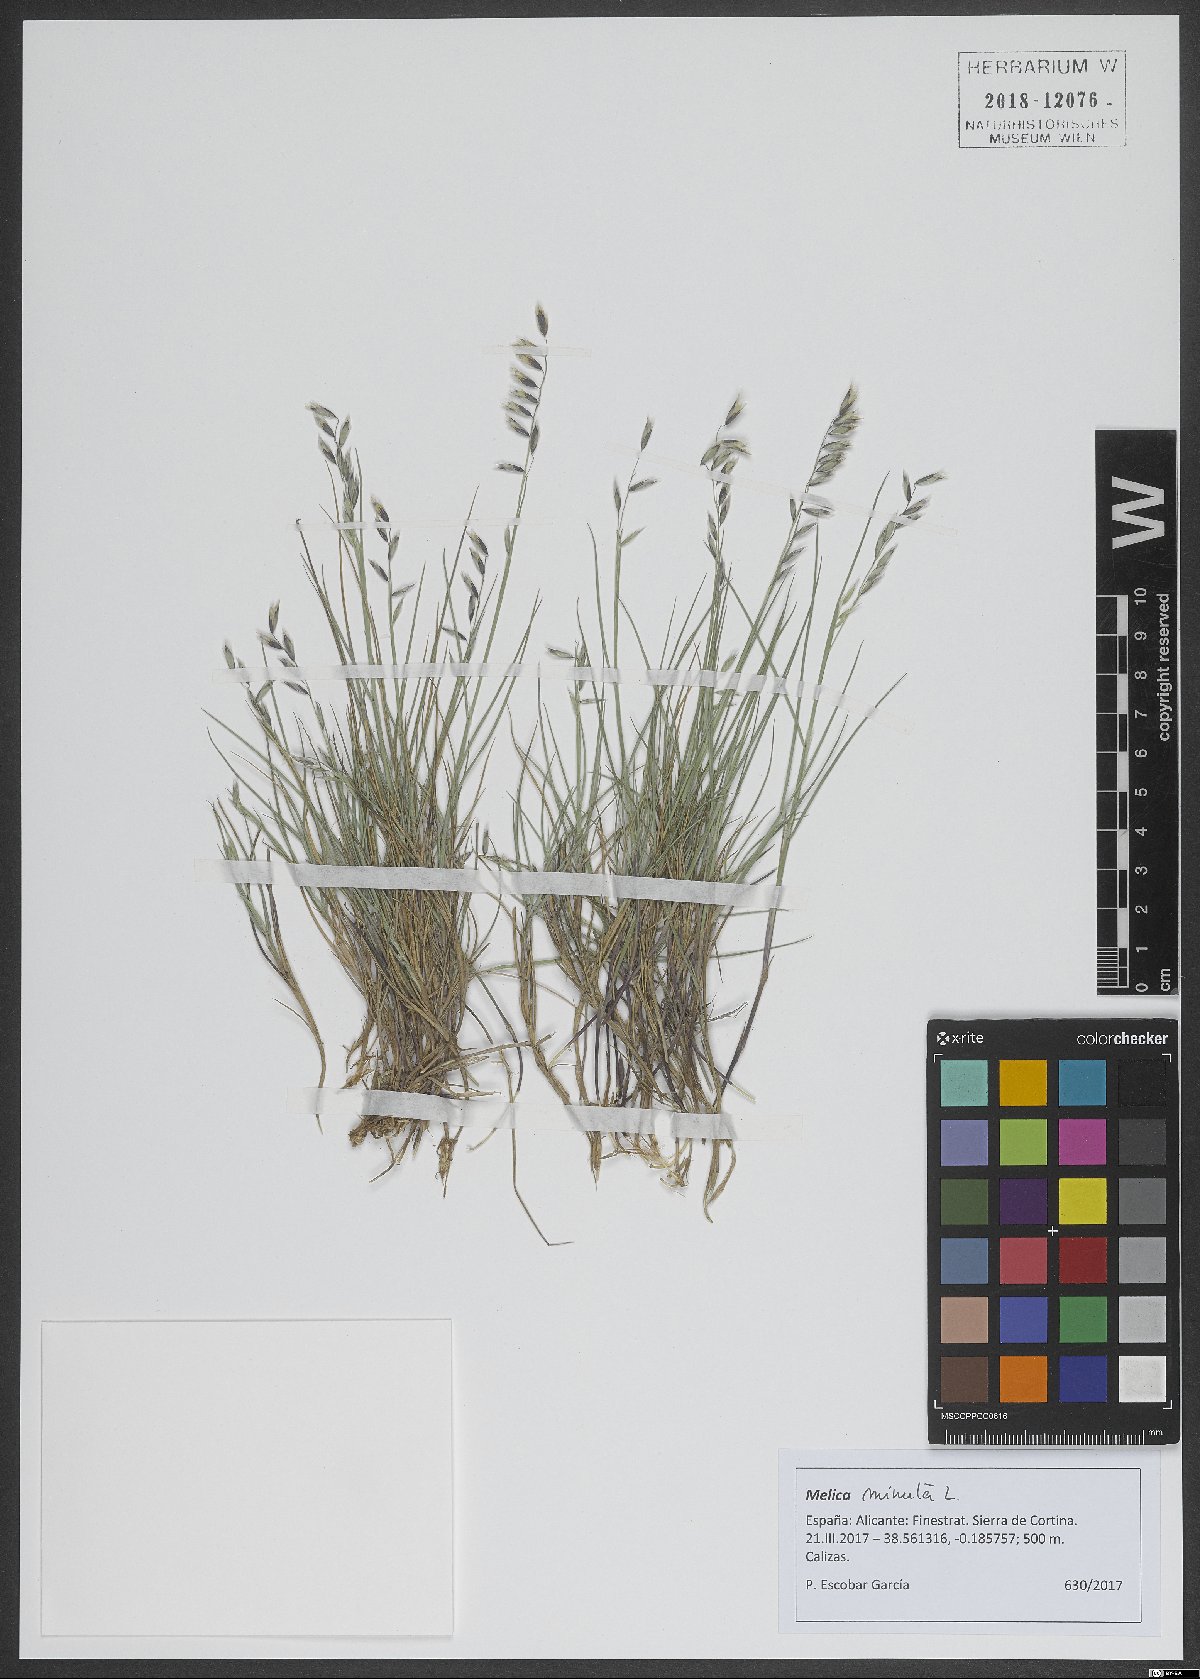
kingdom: Plantae
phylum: Tracheophyta
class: Liliopsida
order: Poales
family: Poaceae
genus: Melica
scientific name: Melica minuta
